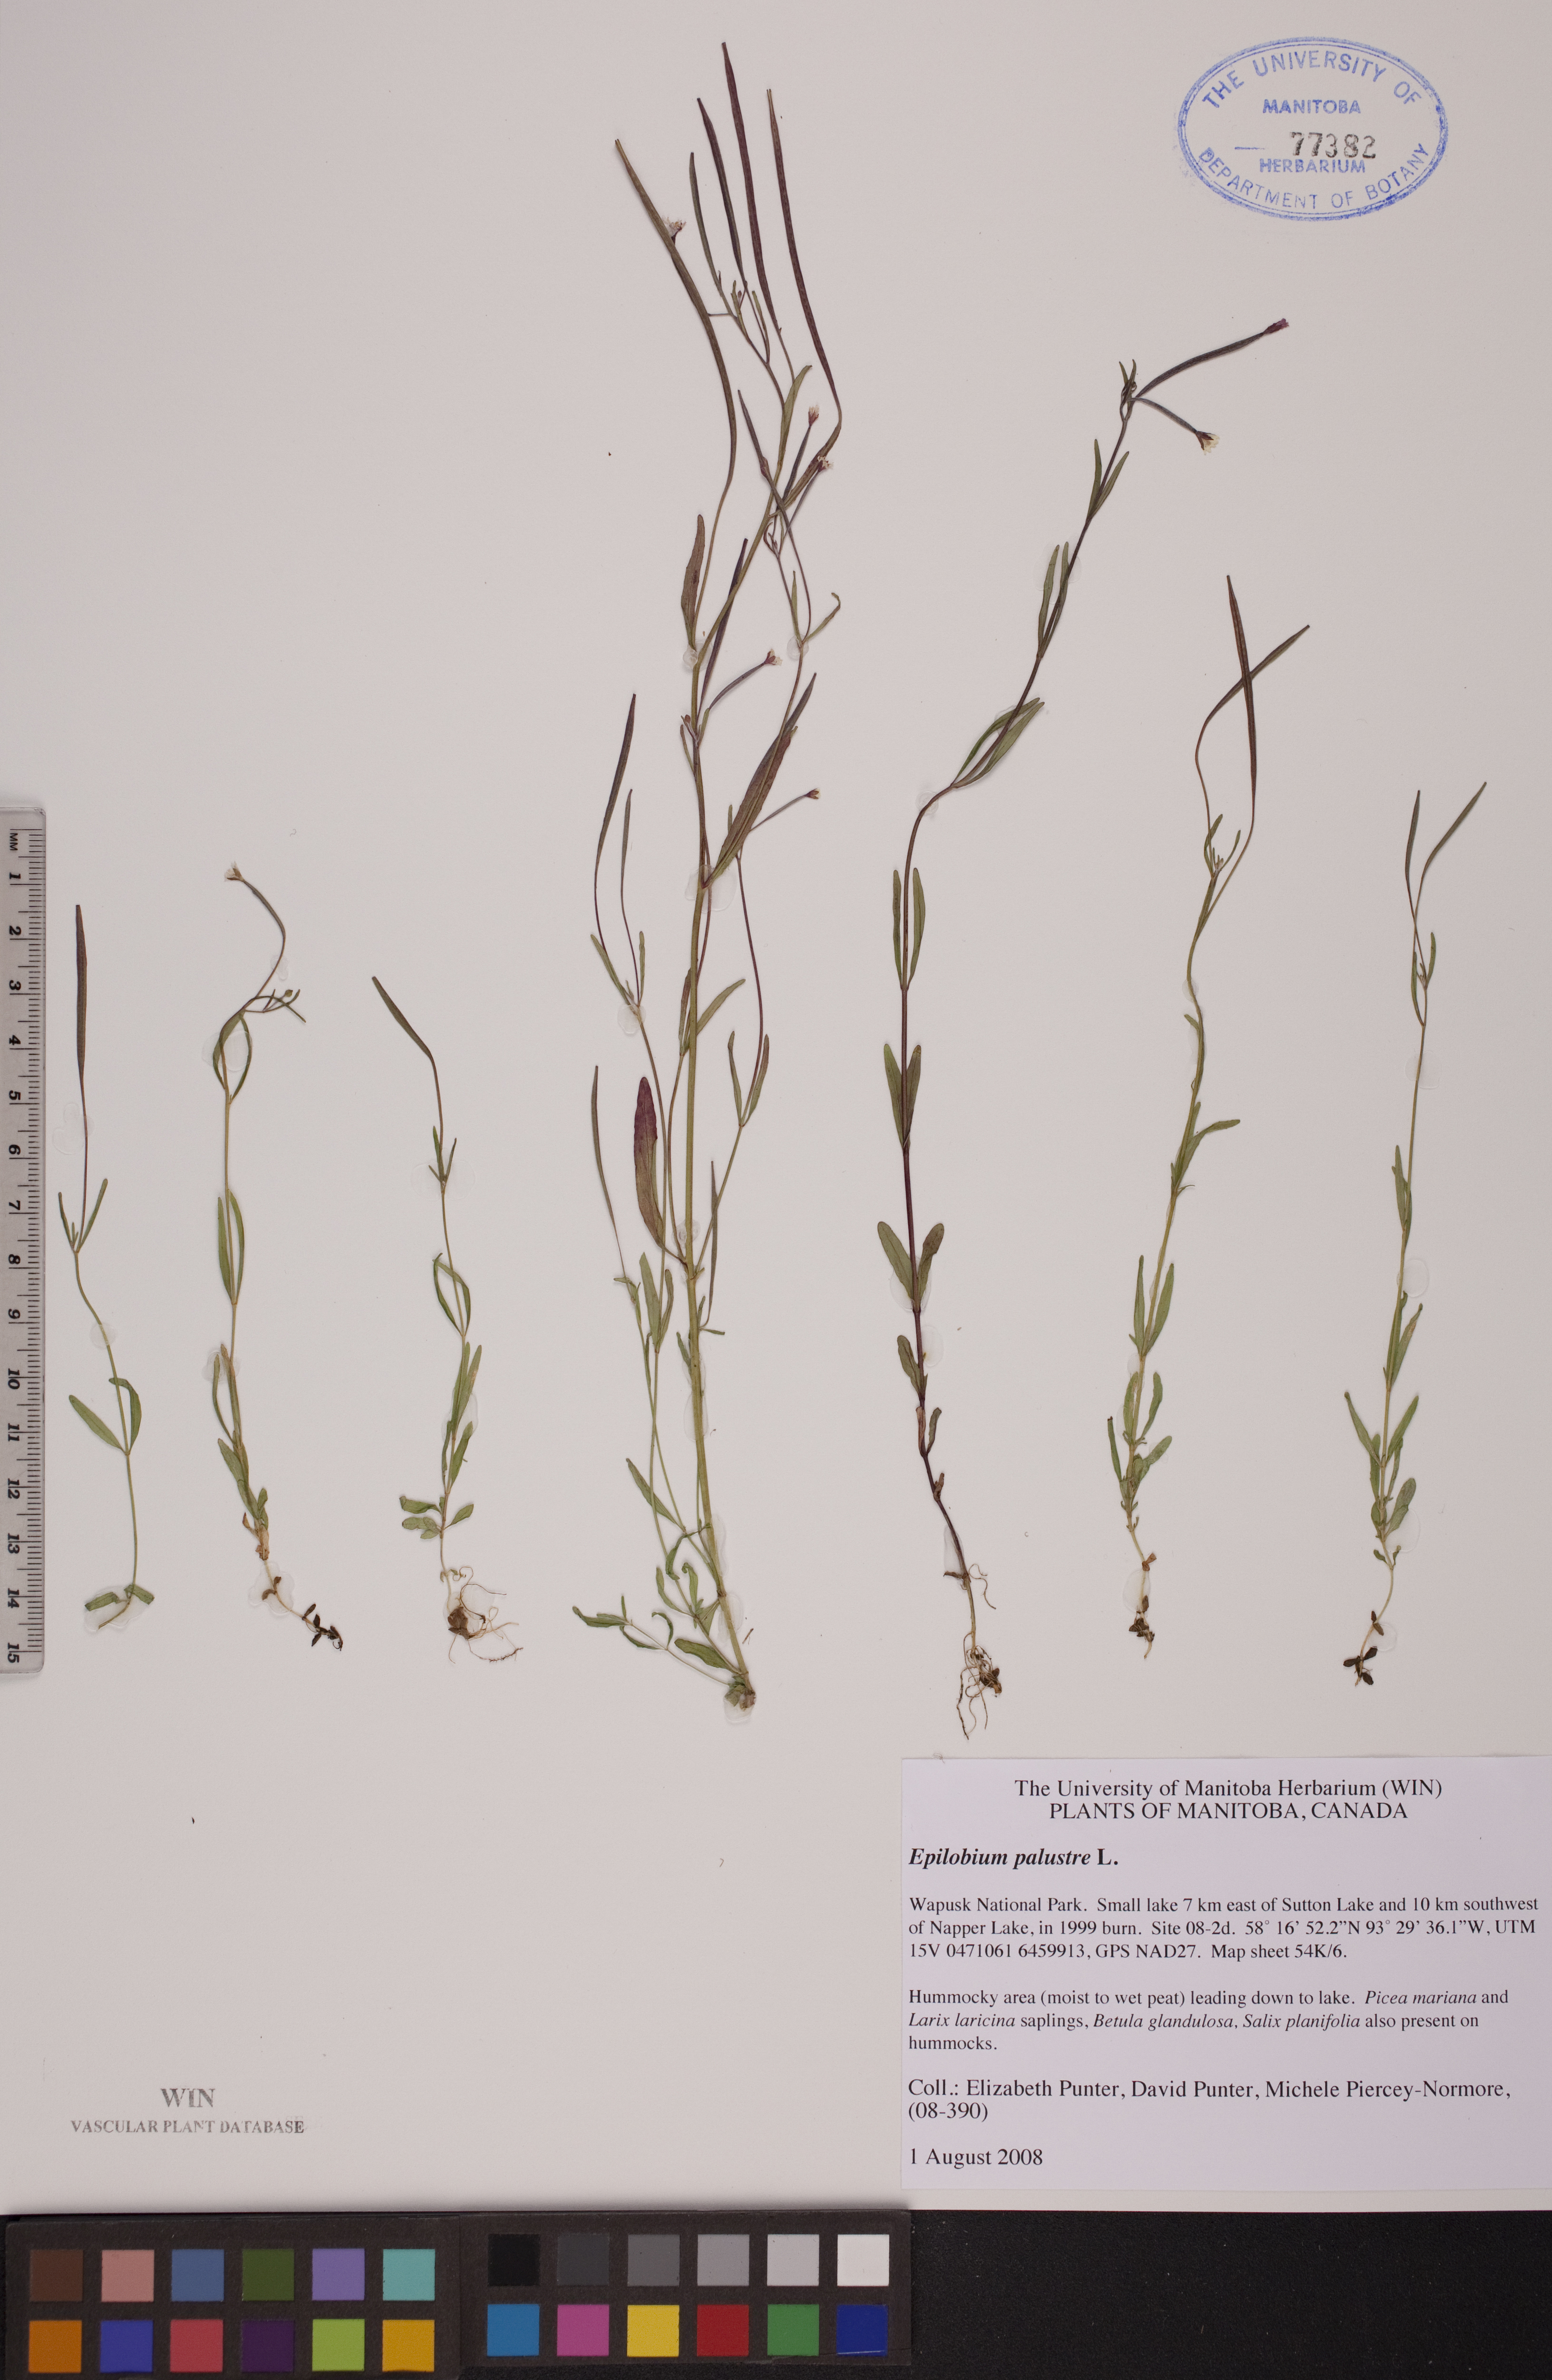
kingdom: Plantae
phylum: Tracheophyta
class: Magnoliopsida
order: Myrtales
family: Onagraceae
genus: Epilobium
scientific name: Epilobium palustre
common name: Marsh willowherb
